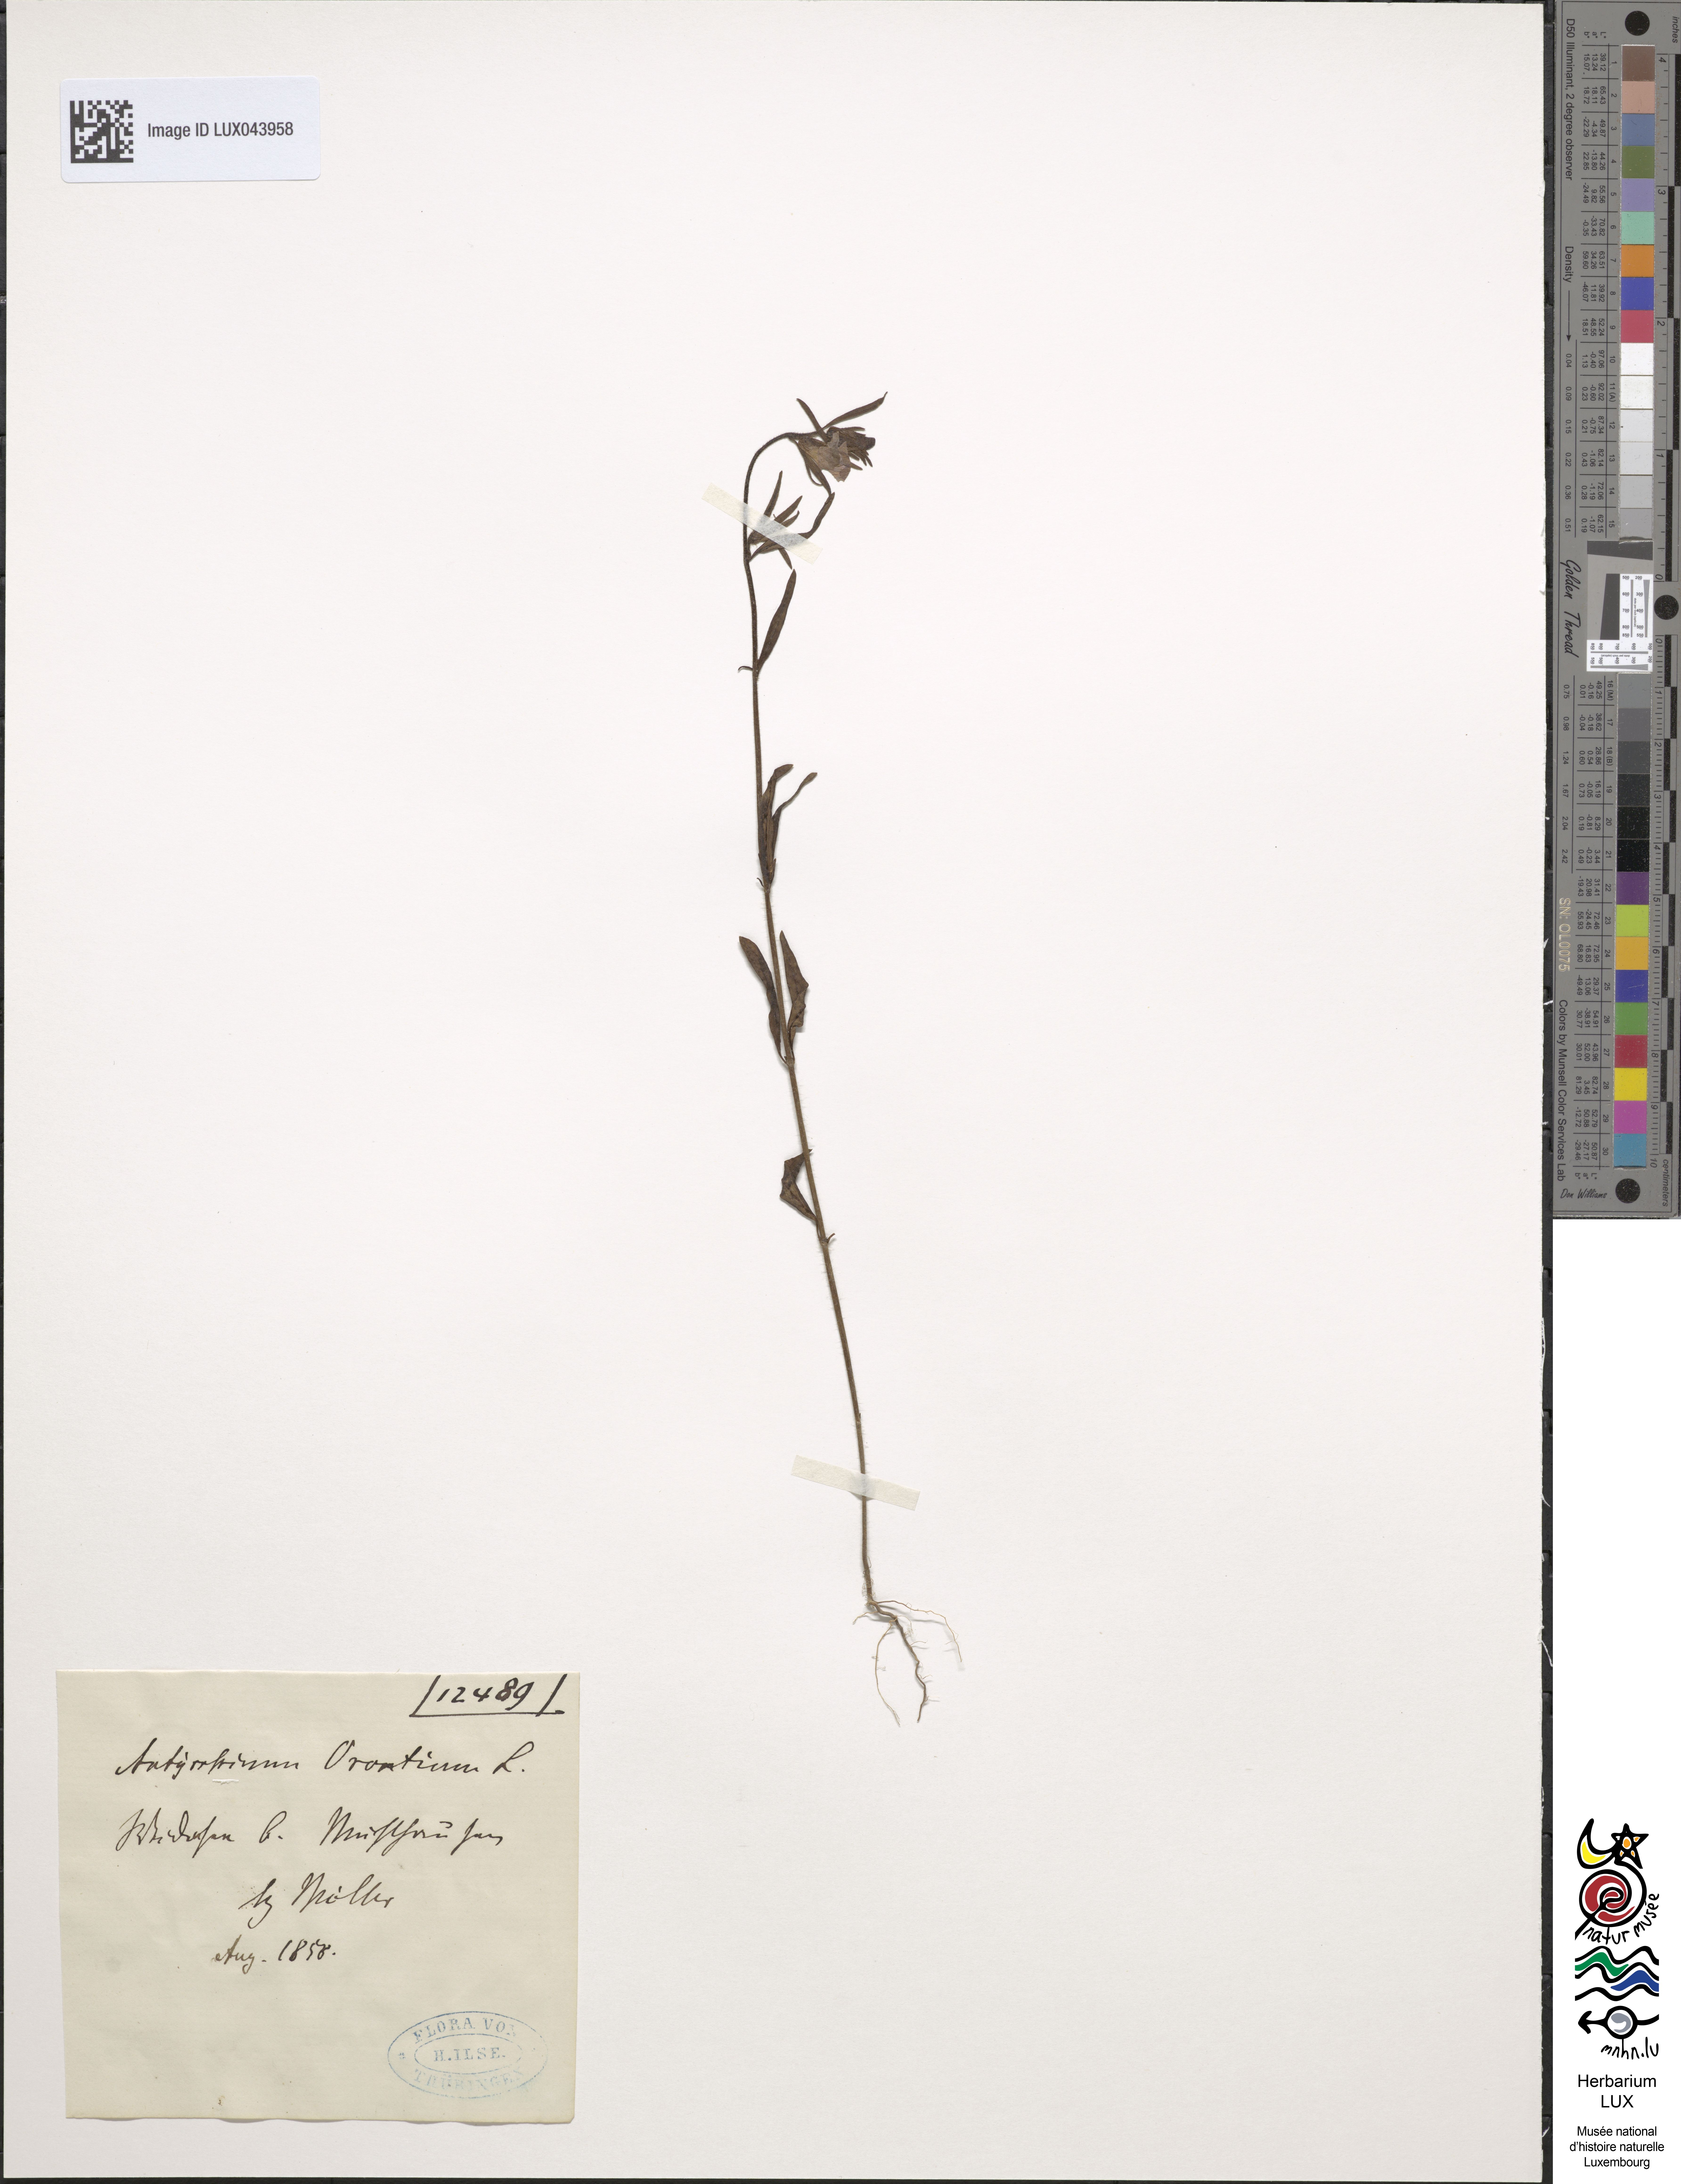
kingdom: Plantae
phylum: Tracheophyta
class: Magnoliopsida
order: Lamiales
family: Plantaginaceae
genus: Misopates
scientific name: Misopates orontium
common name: Weasel's-snout
